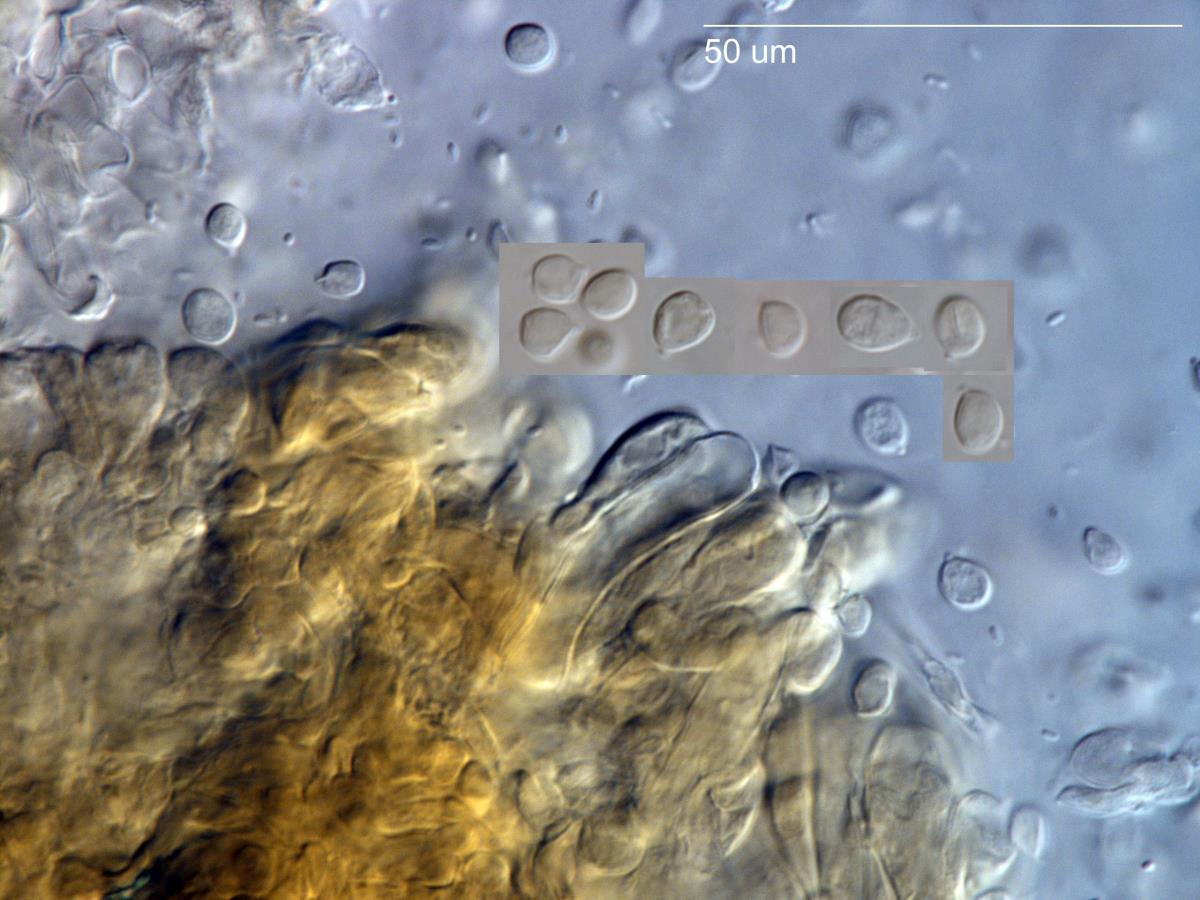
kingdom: Fungi
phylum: Basidiomycota
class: Agaricomycetes
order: Agaricales
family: Tricholomataceae
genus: Tricholomopsis
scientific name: Tricholomopsis rutilans
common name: Plums and custard
